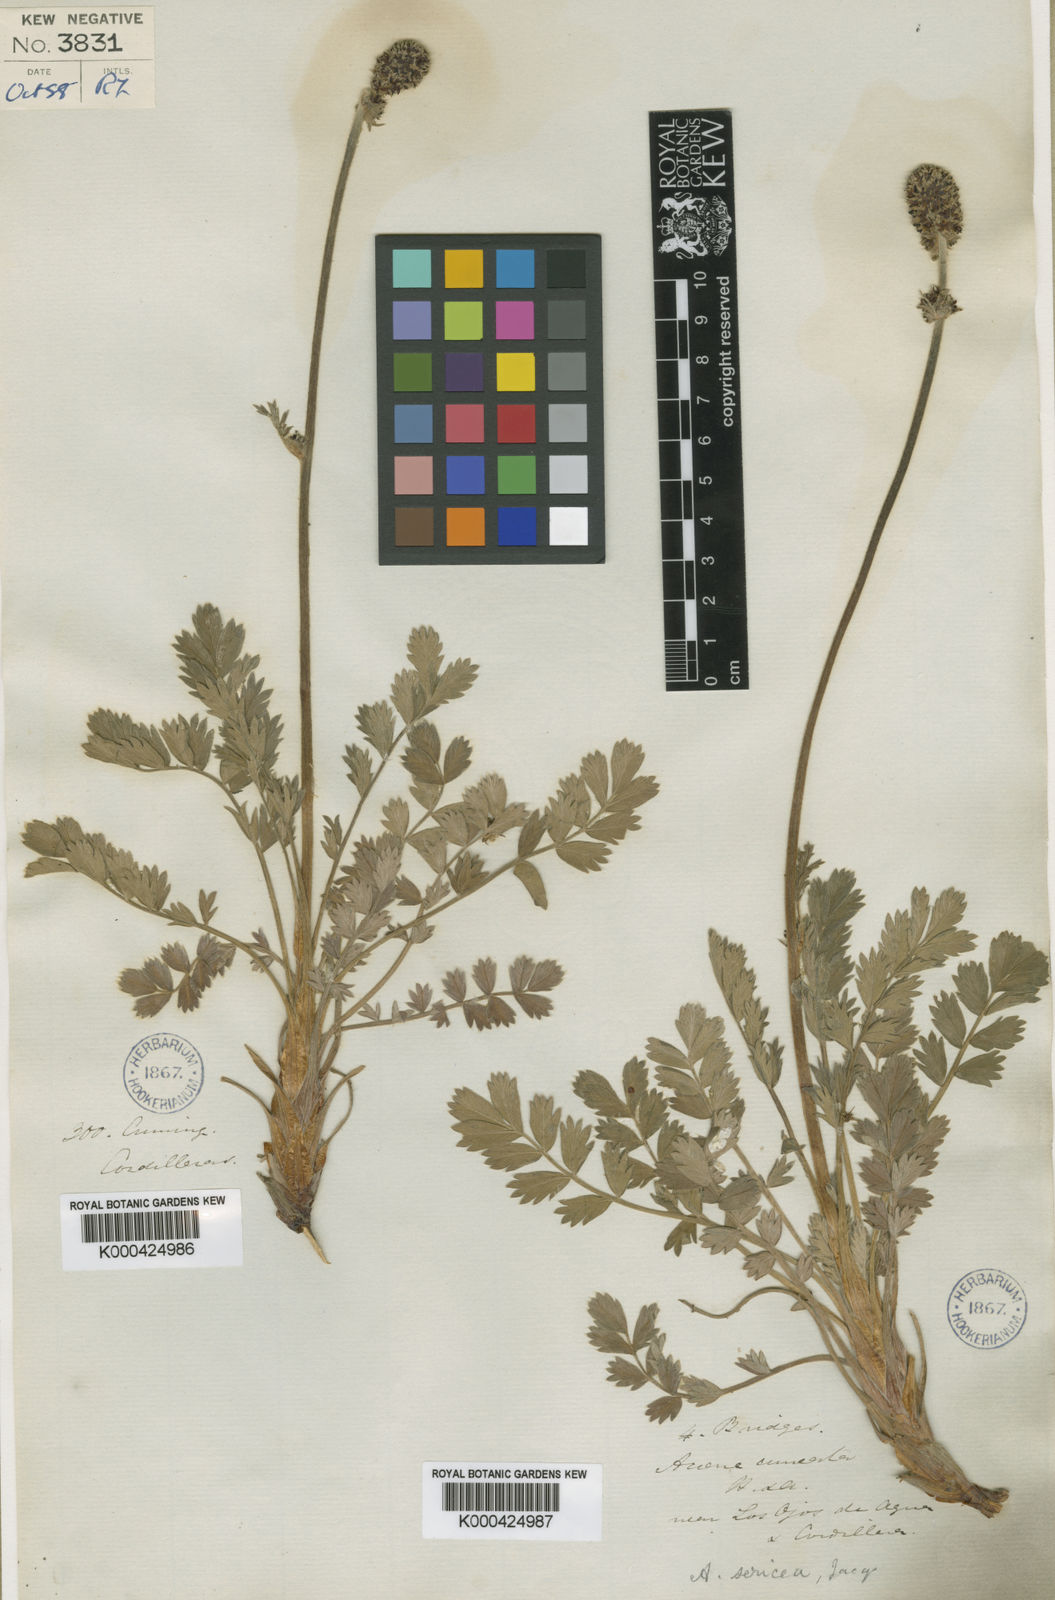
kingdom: Plantae
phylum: Tracheophyta
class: Magnoliopsida
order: Rosales
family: Rosaceae
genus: Acaena
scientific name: Acaena sericea
